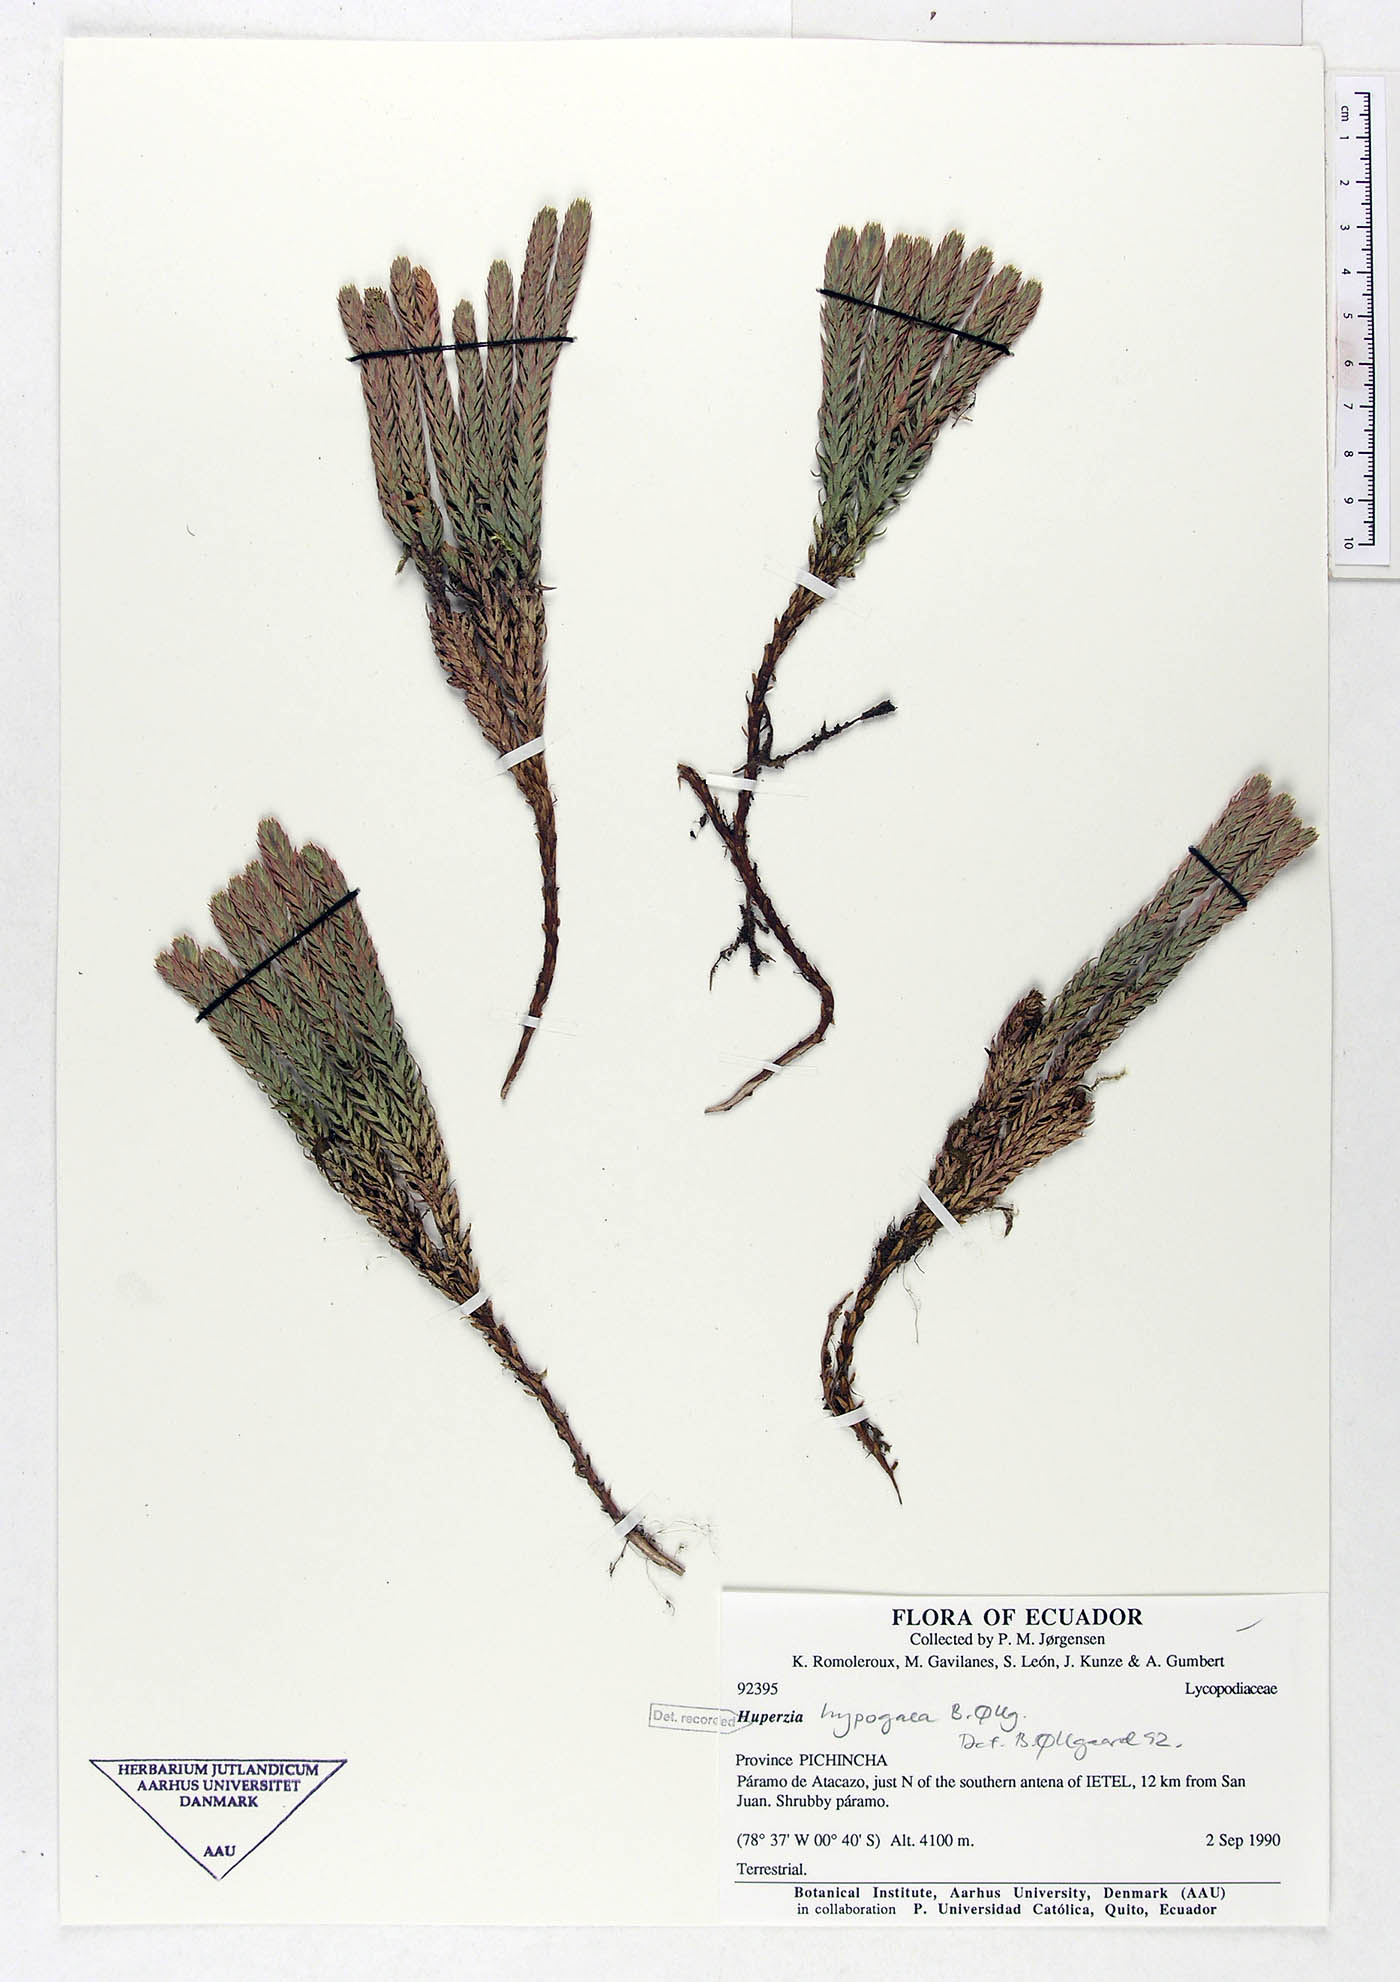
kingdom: Plantae
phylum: Tracheophyta
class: Lycopodiopsida
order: Lycopodiales
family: Lycopodiaceae
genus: Phlegmariurus
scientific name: Phlegmariurus hypogaeus
